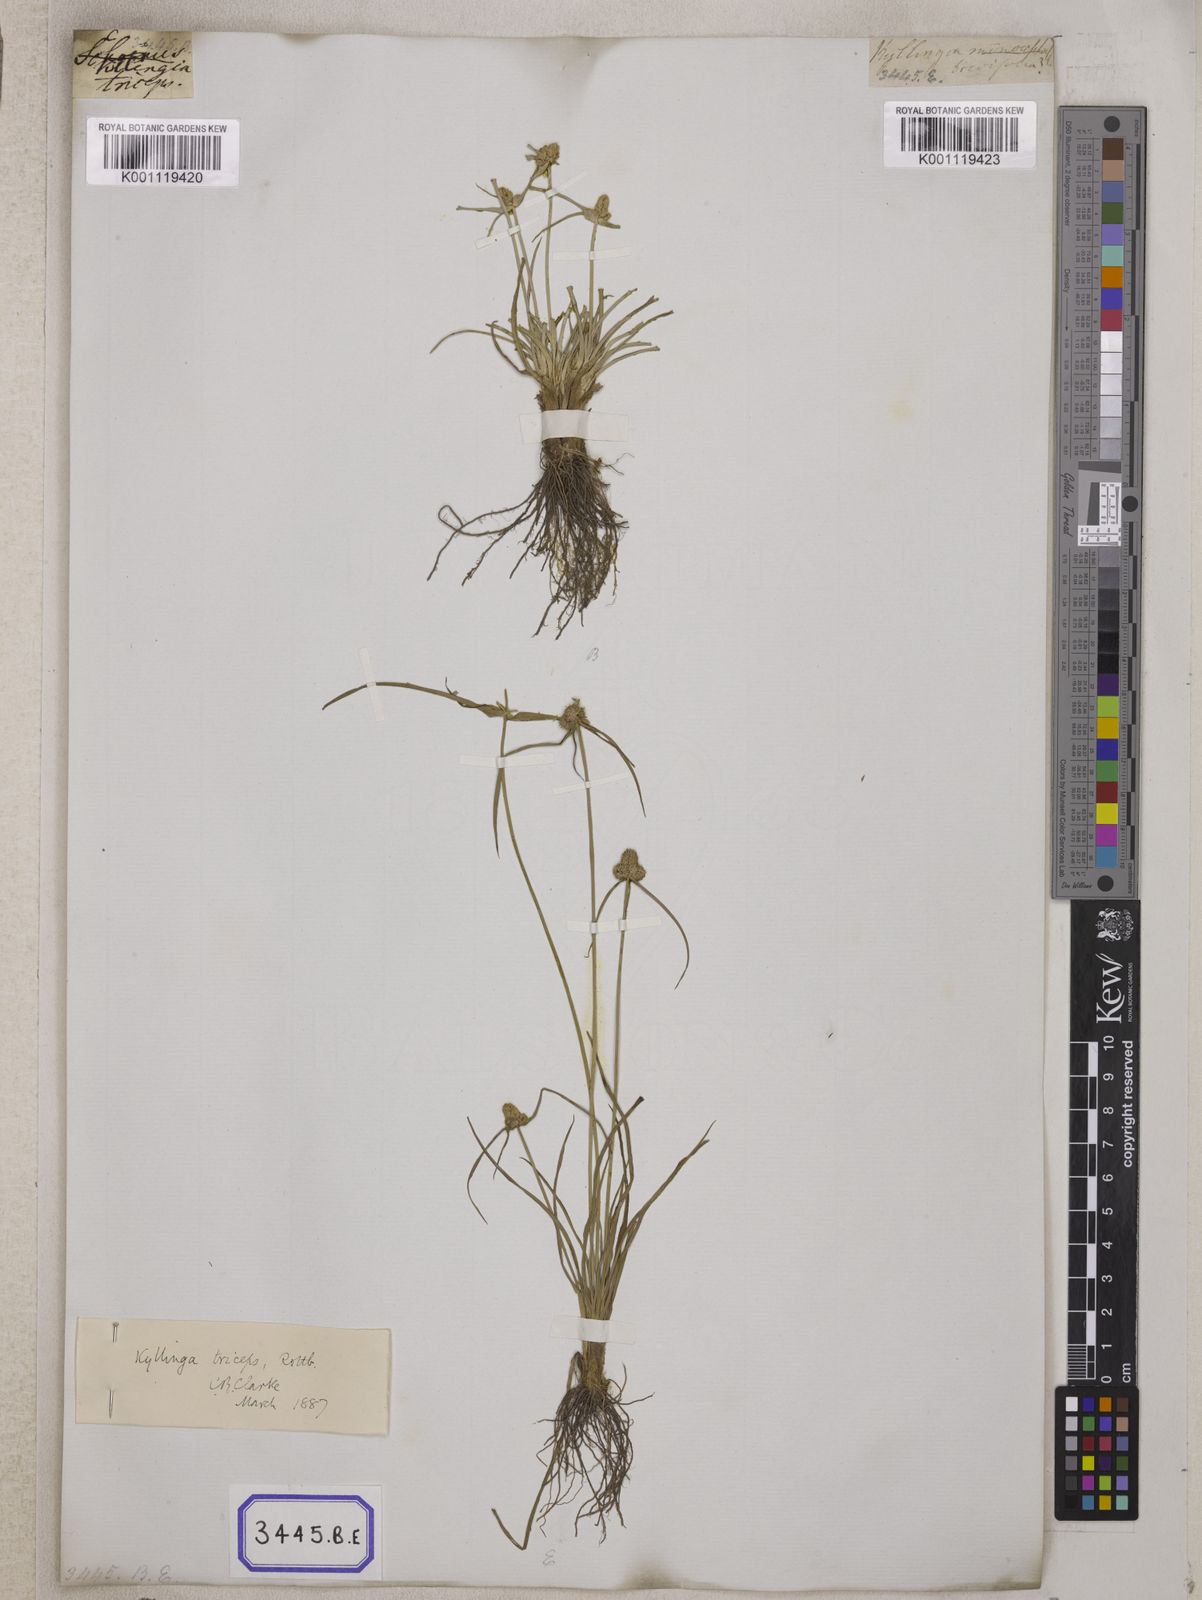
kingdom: Plantae
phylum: Tracheophyta
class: Liliopsida
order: Poales
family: Cyperaceae
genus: Cyperus
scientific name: Cyperus
